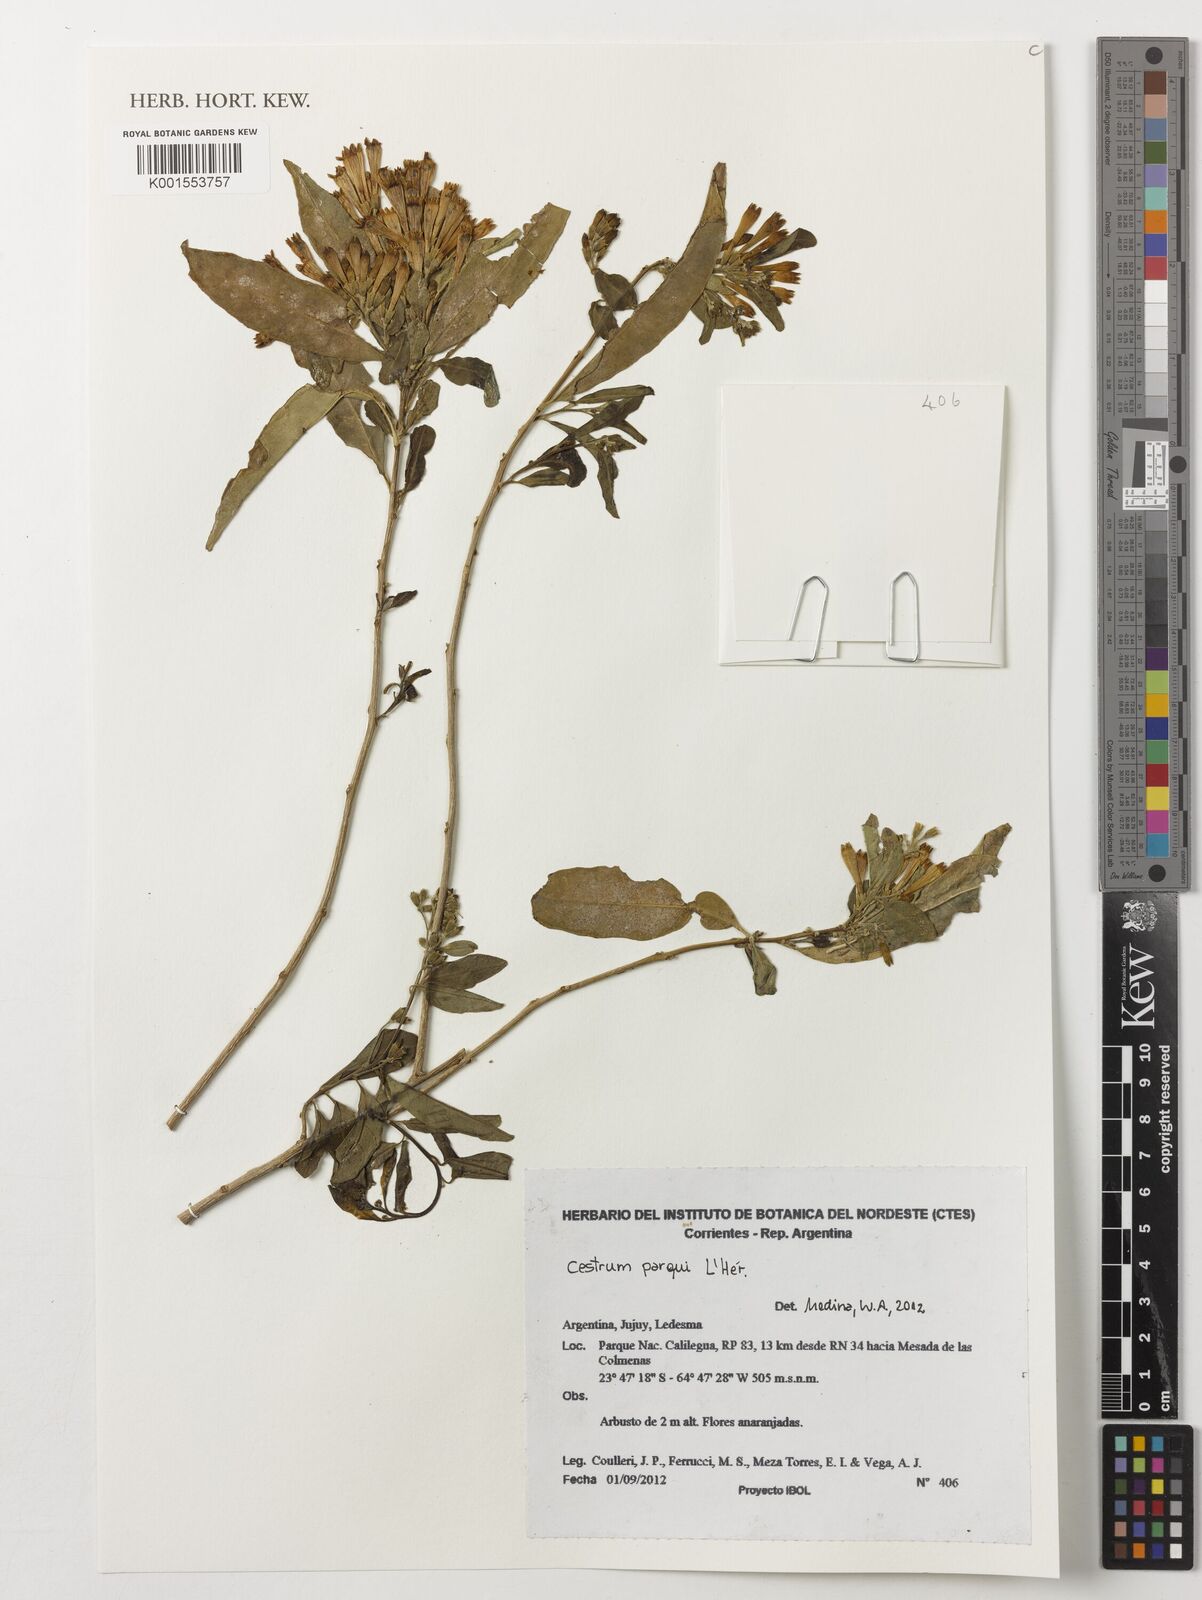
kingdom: Plantae
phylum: Tracheophyta
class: Magnoliopsida
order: Solanales
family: Solanaceae
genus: Cestrum
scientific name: Cestrum parqui
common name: Chilean cestrum
